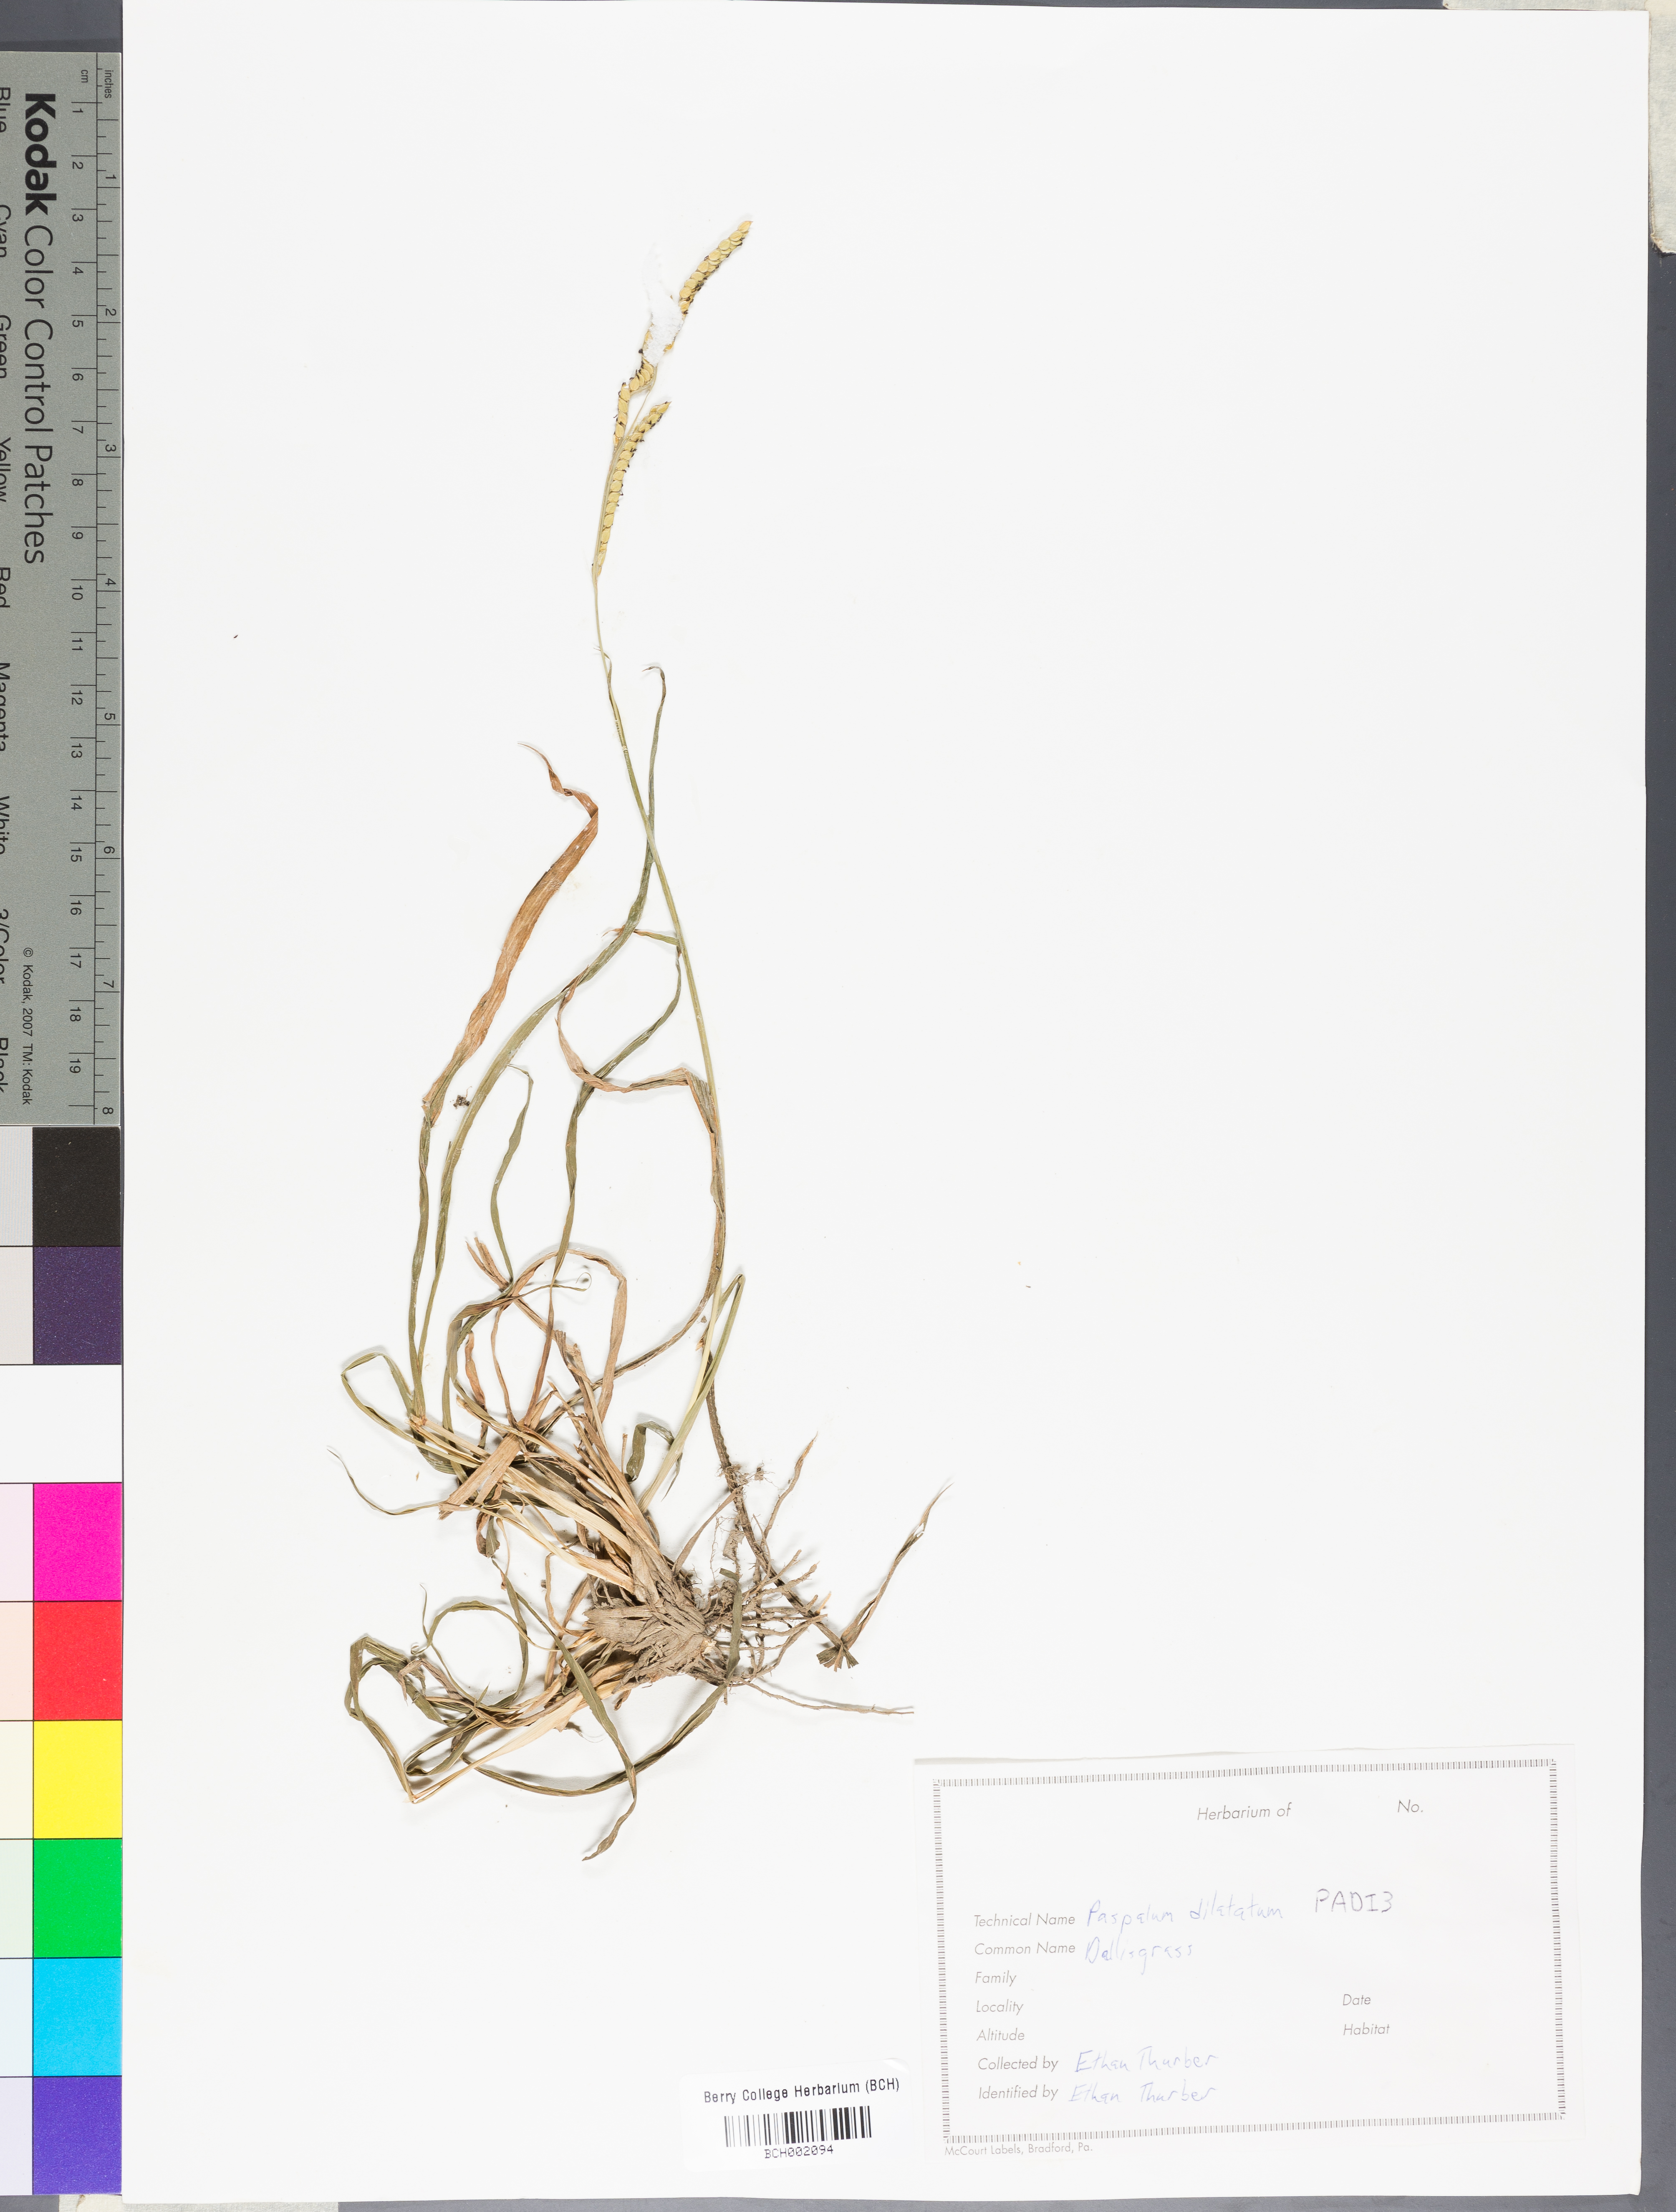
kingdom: Plantae
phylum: Tracheophyta
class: Liliopsida
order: Poales
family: Poaceae
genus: Paspalum
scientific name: Paspalum dilatatum
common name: Dallisgrass
